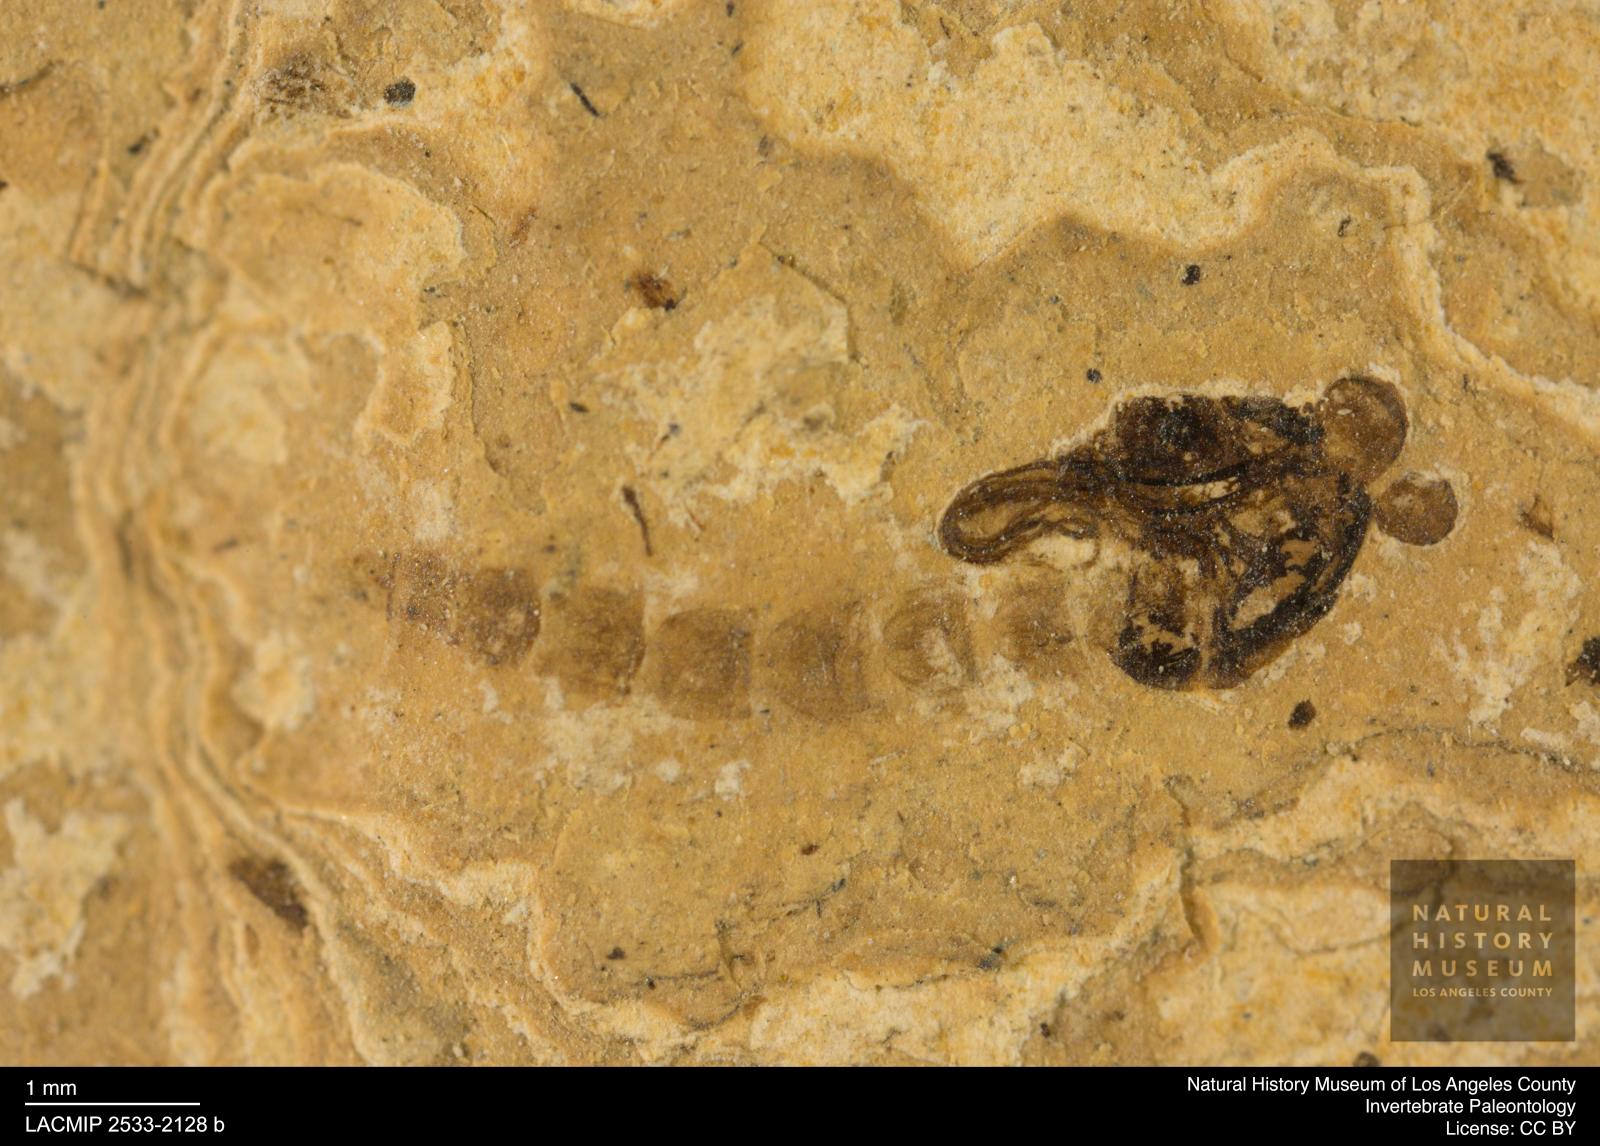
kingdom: Animalia
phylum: Arthropoda
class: Insecta
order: Diptera
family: Chironomidae
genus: Pelopiina
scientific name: Pelopiina
